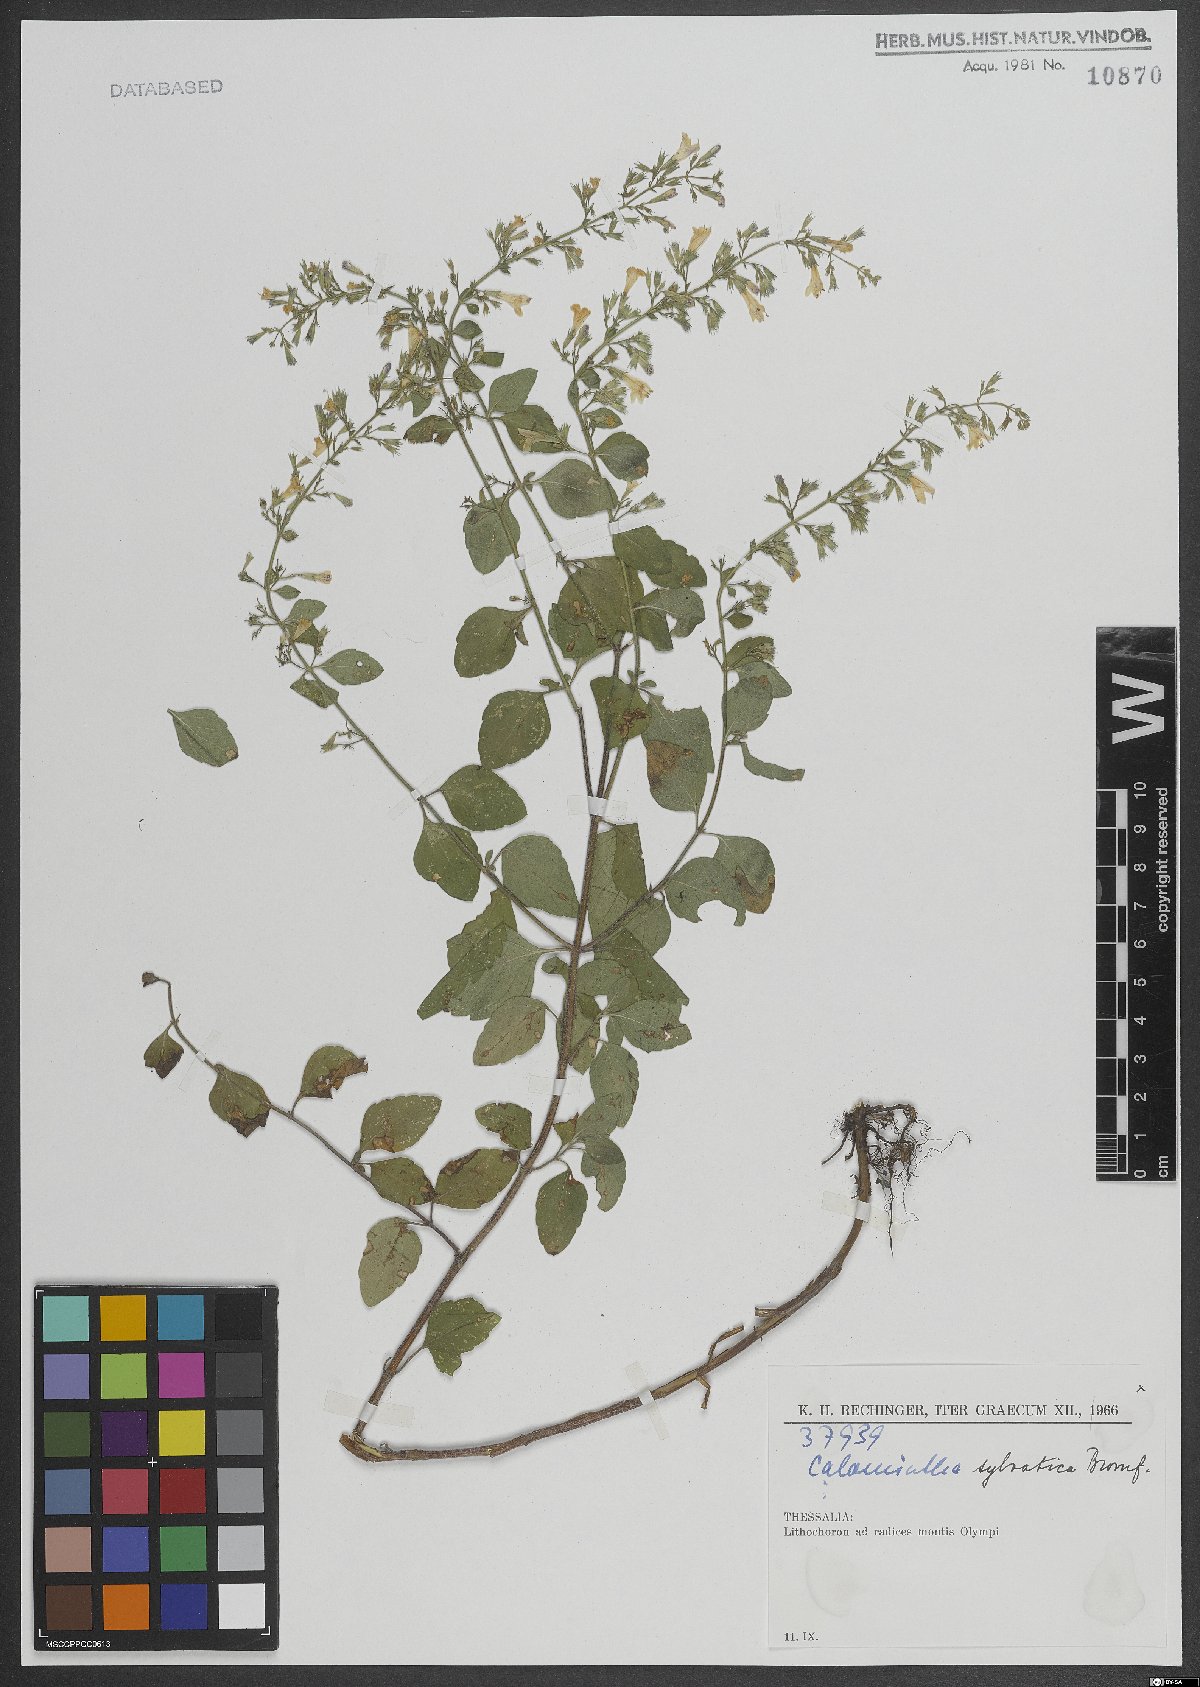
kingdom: Plantae
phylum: Tracheophyta
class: Magnoliopsida
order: Lamiales
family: Lamiaceae
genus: Clinopodium
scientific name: Clinopodium menthifolium
